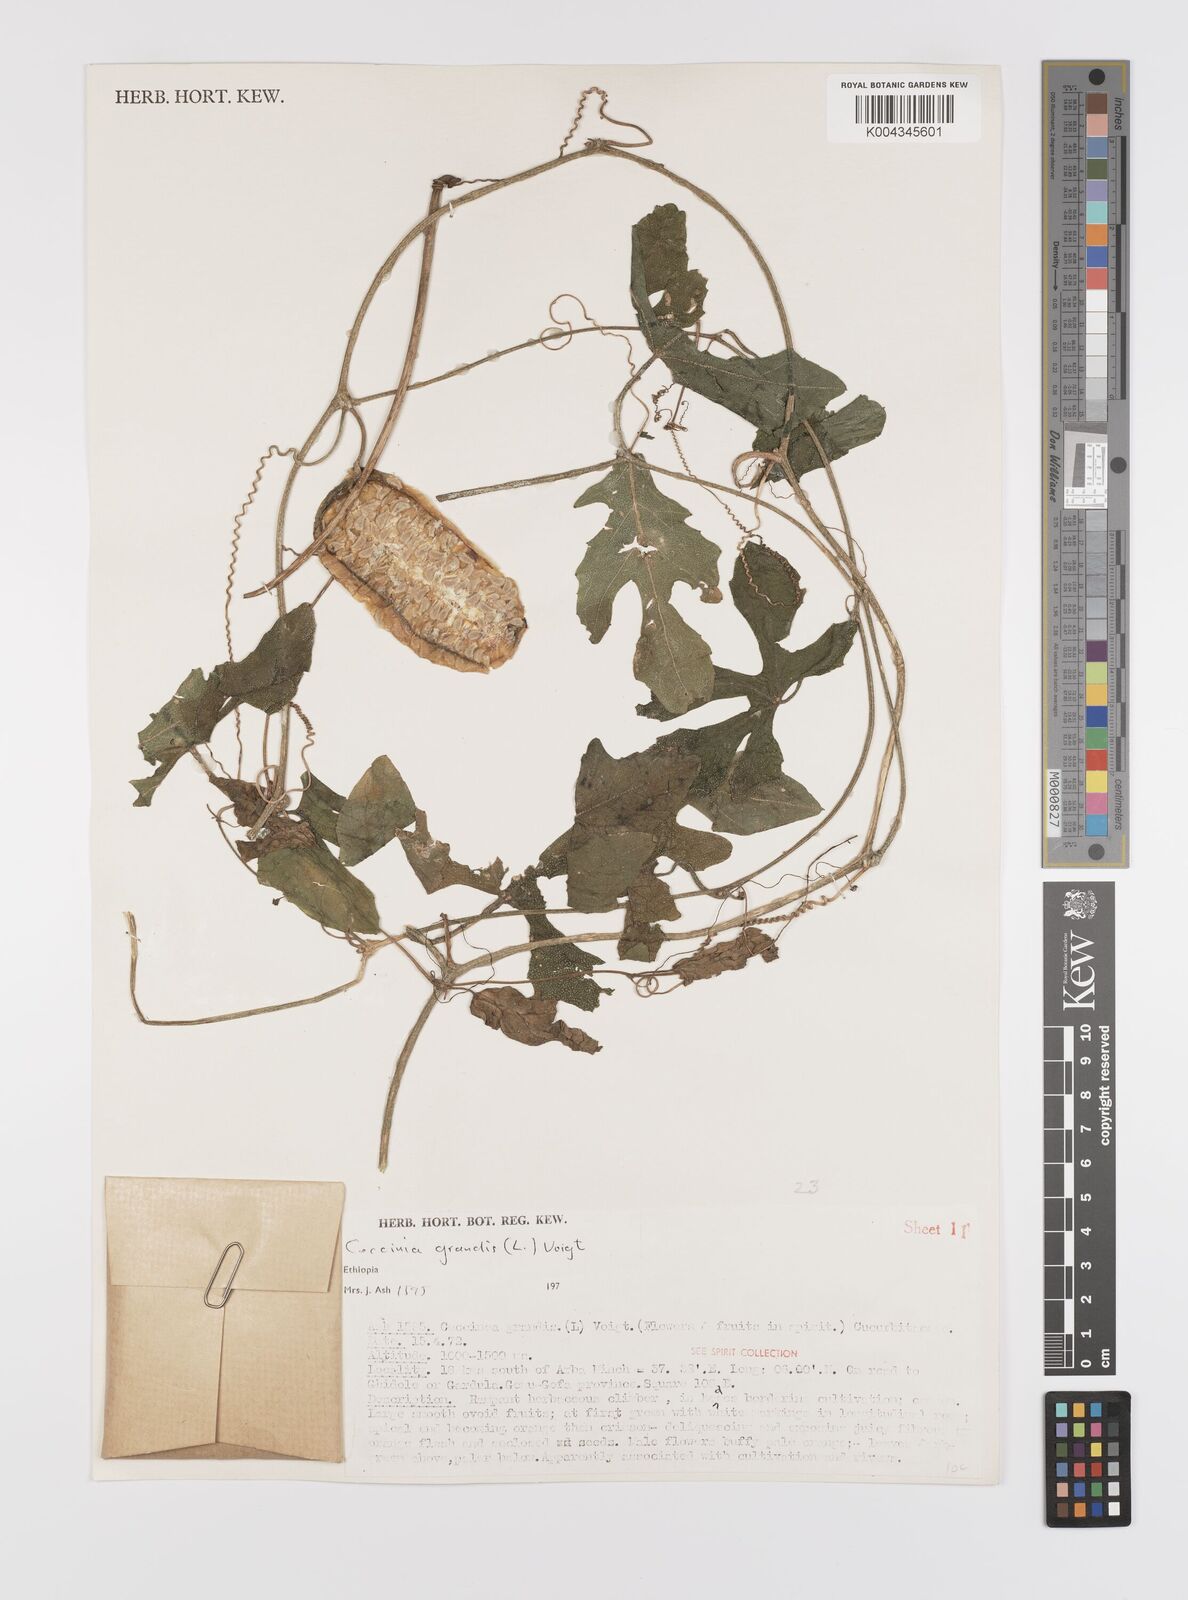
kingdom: Plantae
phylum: Tracheophyta
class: Magnoliopsida
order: Cucurbitales
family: Cucurbitaceae
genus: Coccinia
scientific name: Coccinia grandis
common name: Ivy gourd
